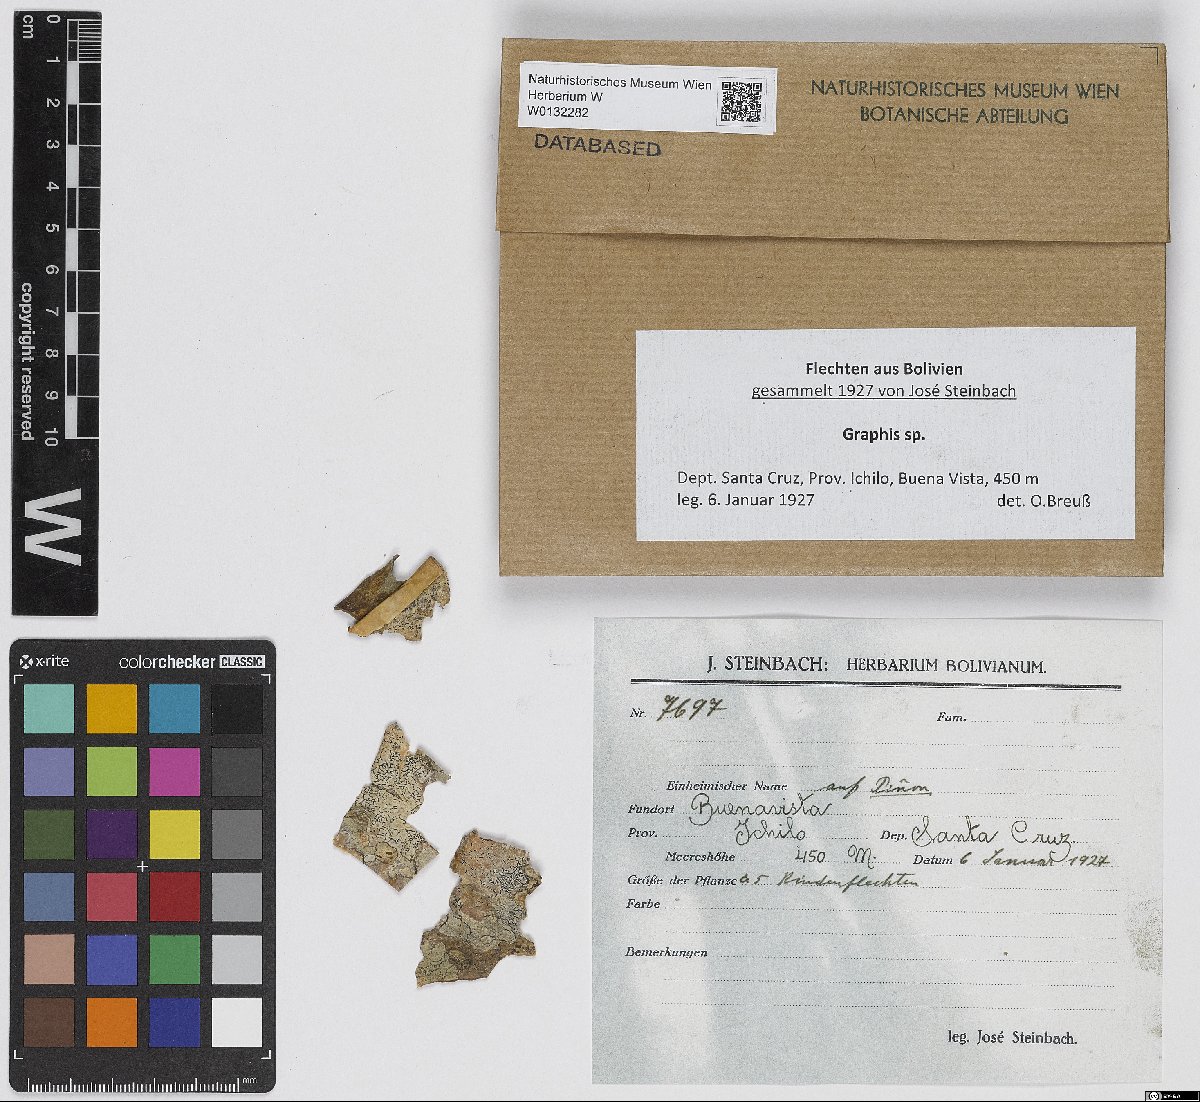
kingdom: Fungi
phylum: Ascomycota
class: Lecanoromycetes
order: Ostropales
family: Graphidaceae
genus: Graphis
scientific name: Graphis
